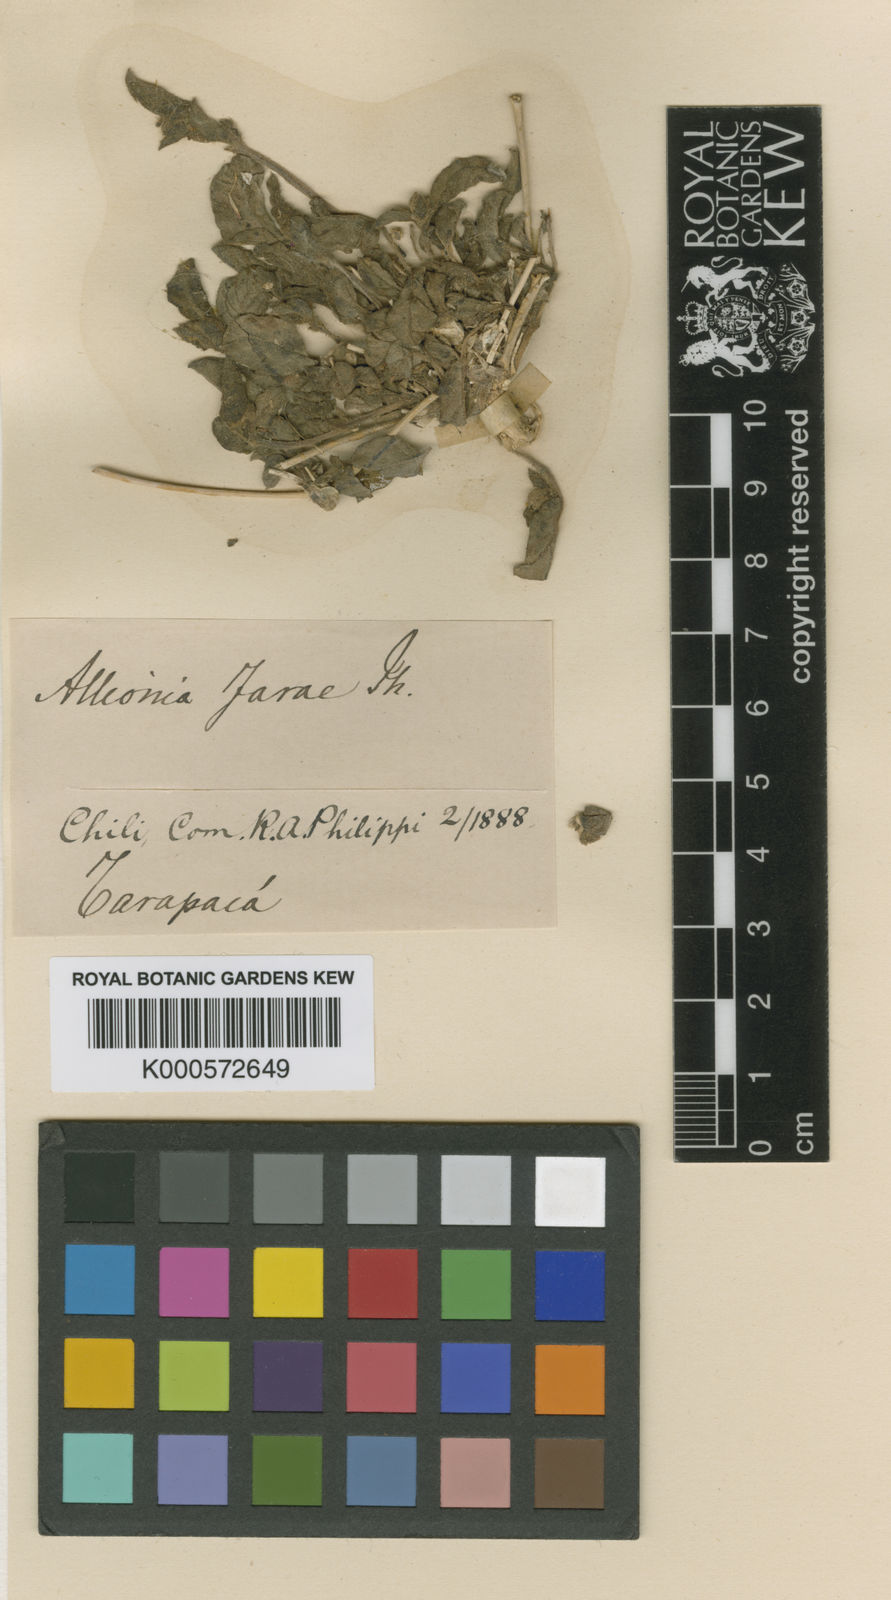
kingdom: Plantae
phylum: Tracheophyta
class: Magnoliopsida
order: Caryophyllales
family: Nyctaginaceae
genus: Allionia
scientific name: Allionia incarnata
